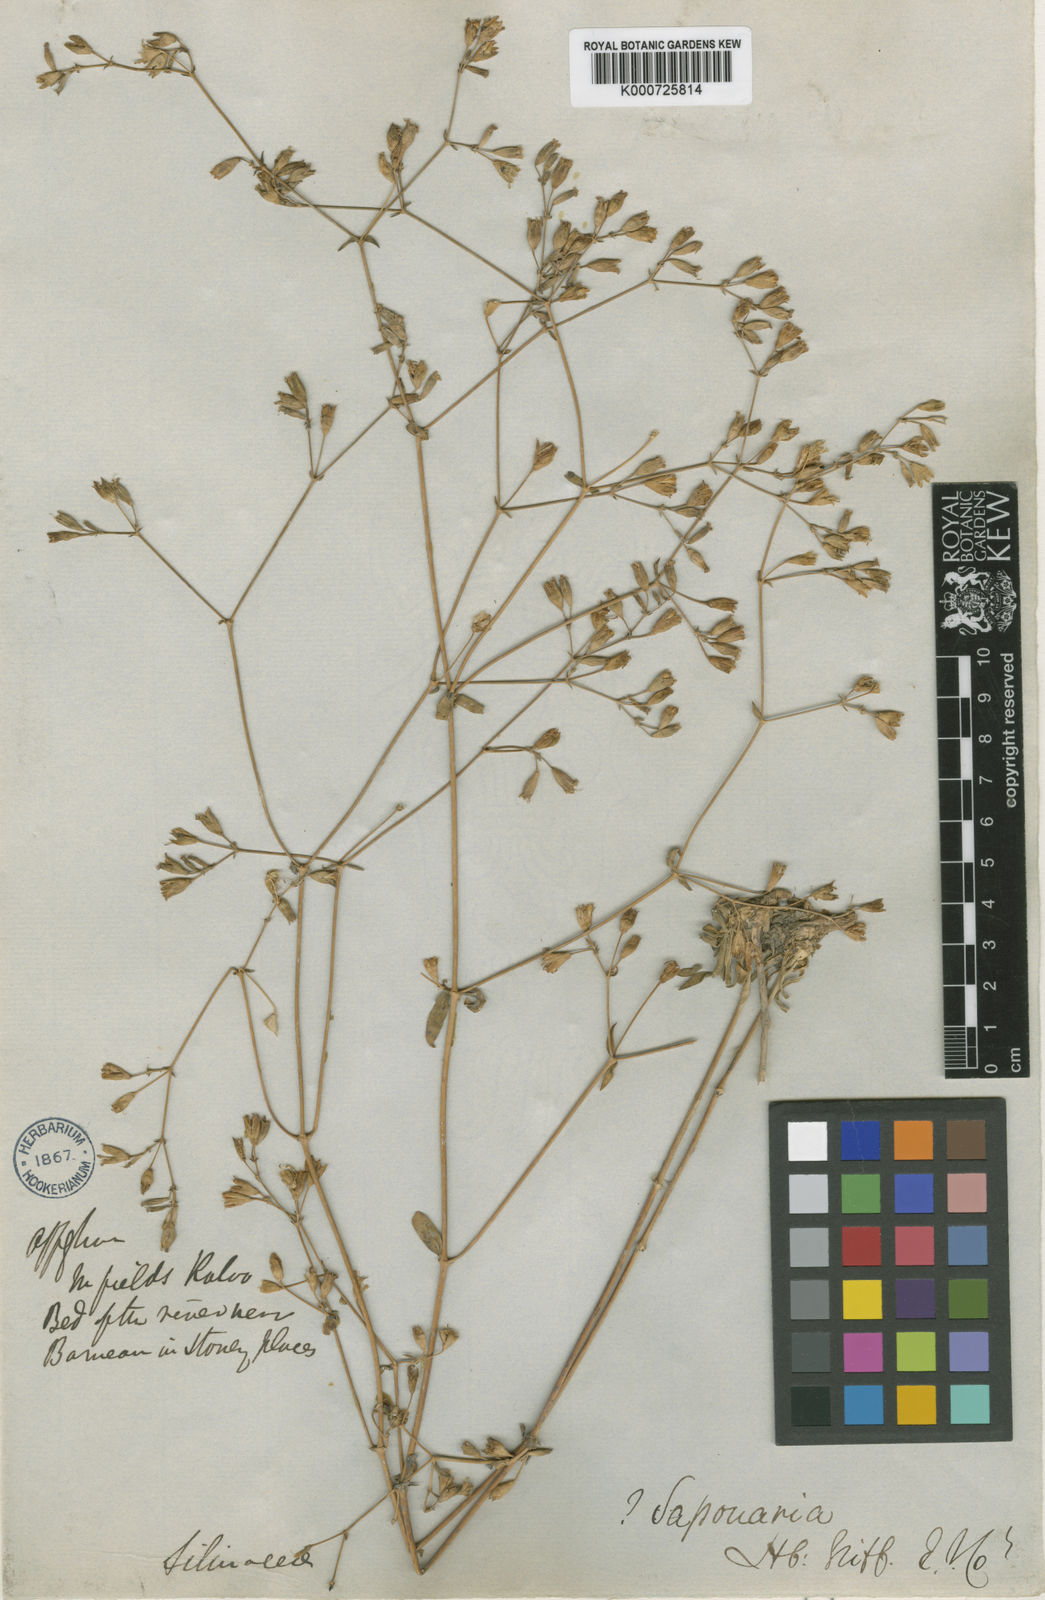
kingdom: Plantae
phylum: Tracheophyta
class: Magnoliopsida
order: Caryophyllales
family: Caryophyllaceae
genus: Saponaria
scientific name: Saponaria griffithiana
